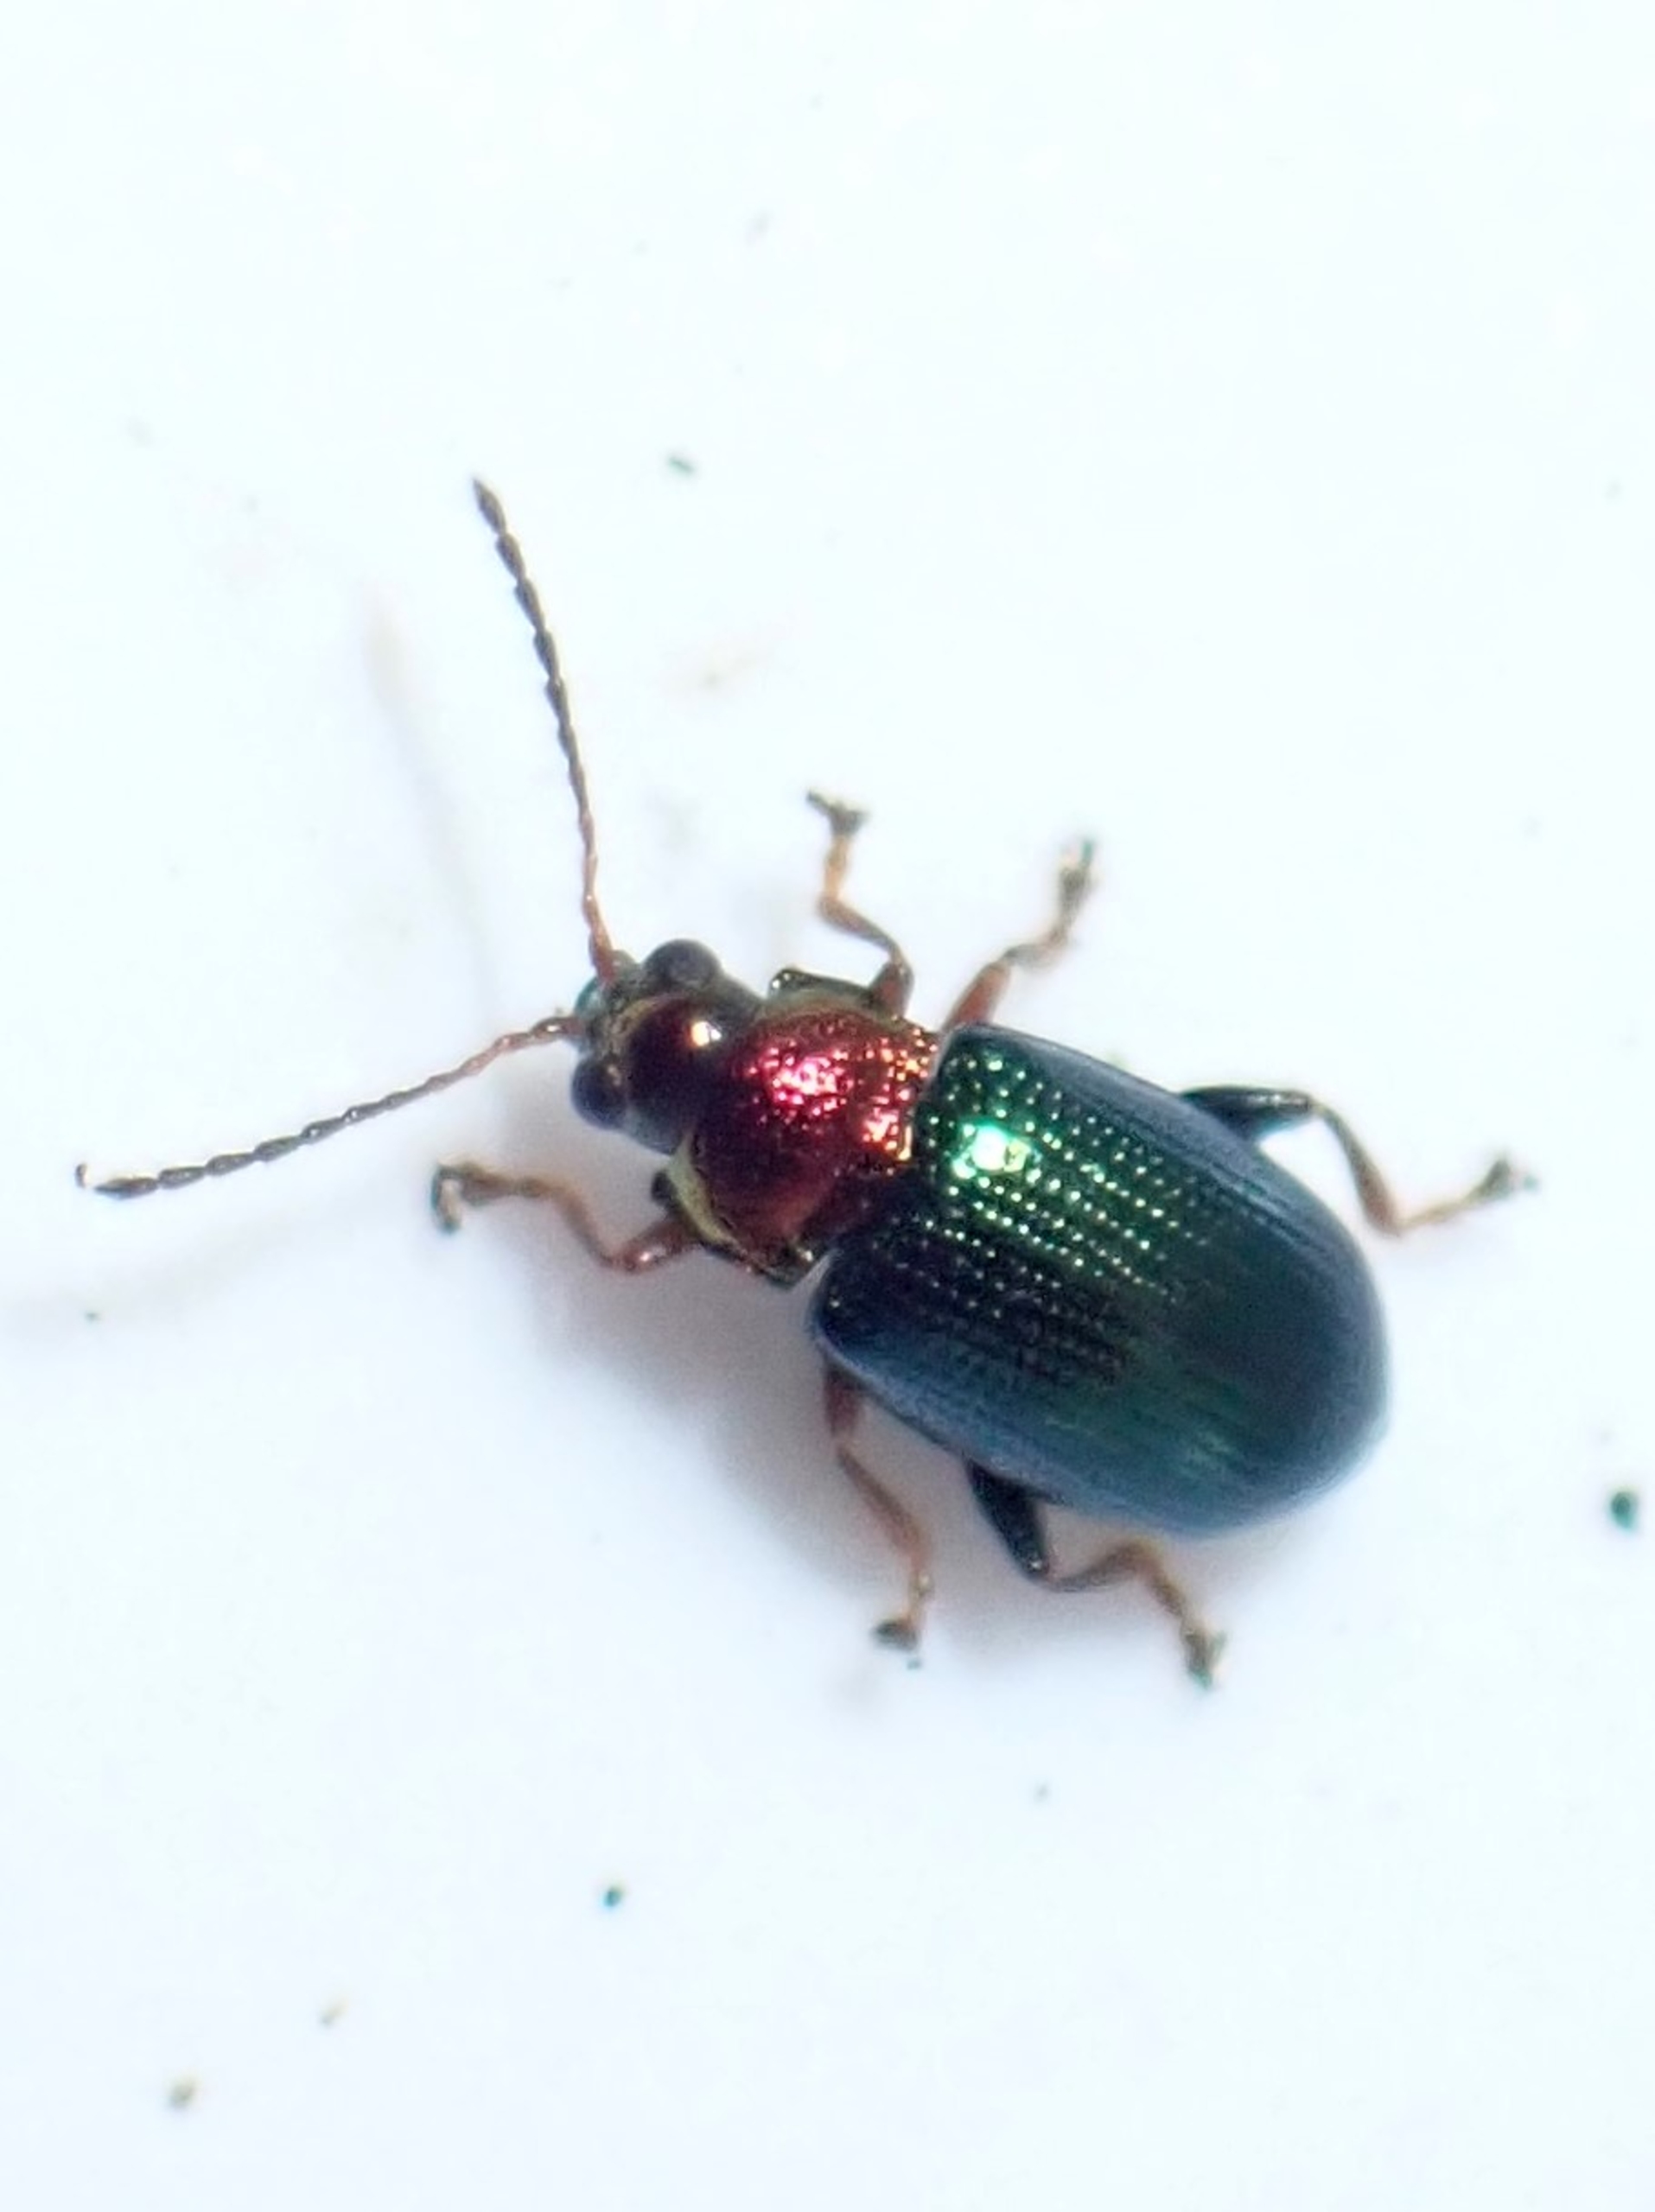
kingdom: Animalia
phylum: Arthropoda
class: Insecta
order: Coleoptera
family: Chrysomelidae
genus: Crepidodera
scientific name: Crepidodera aurata
